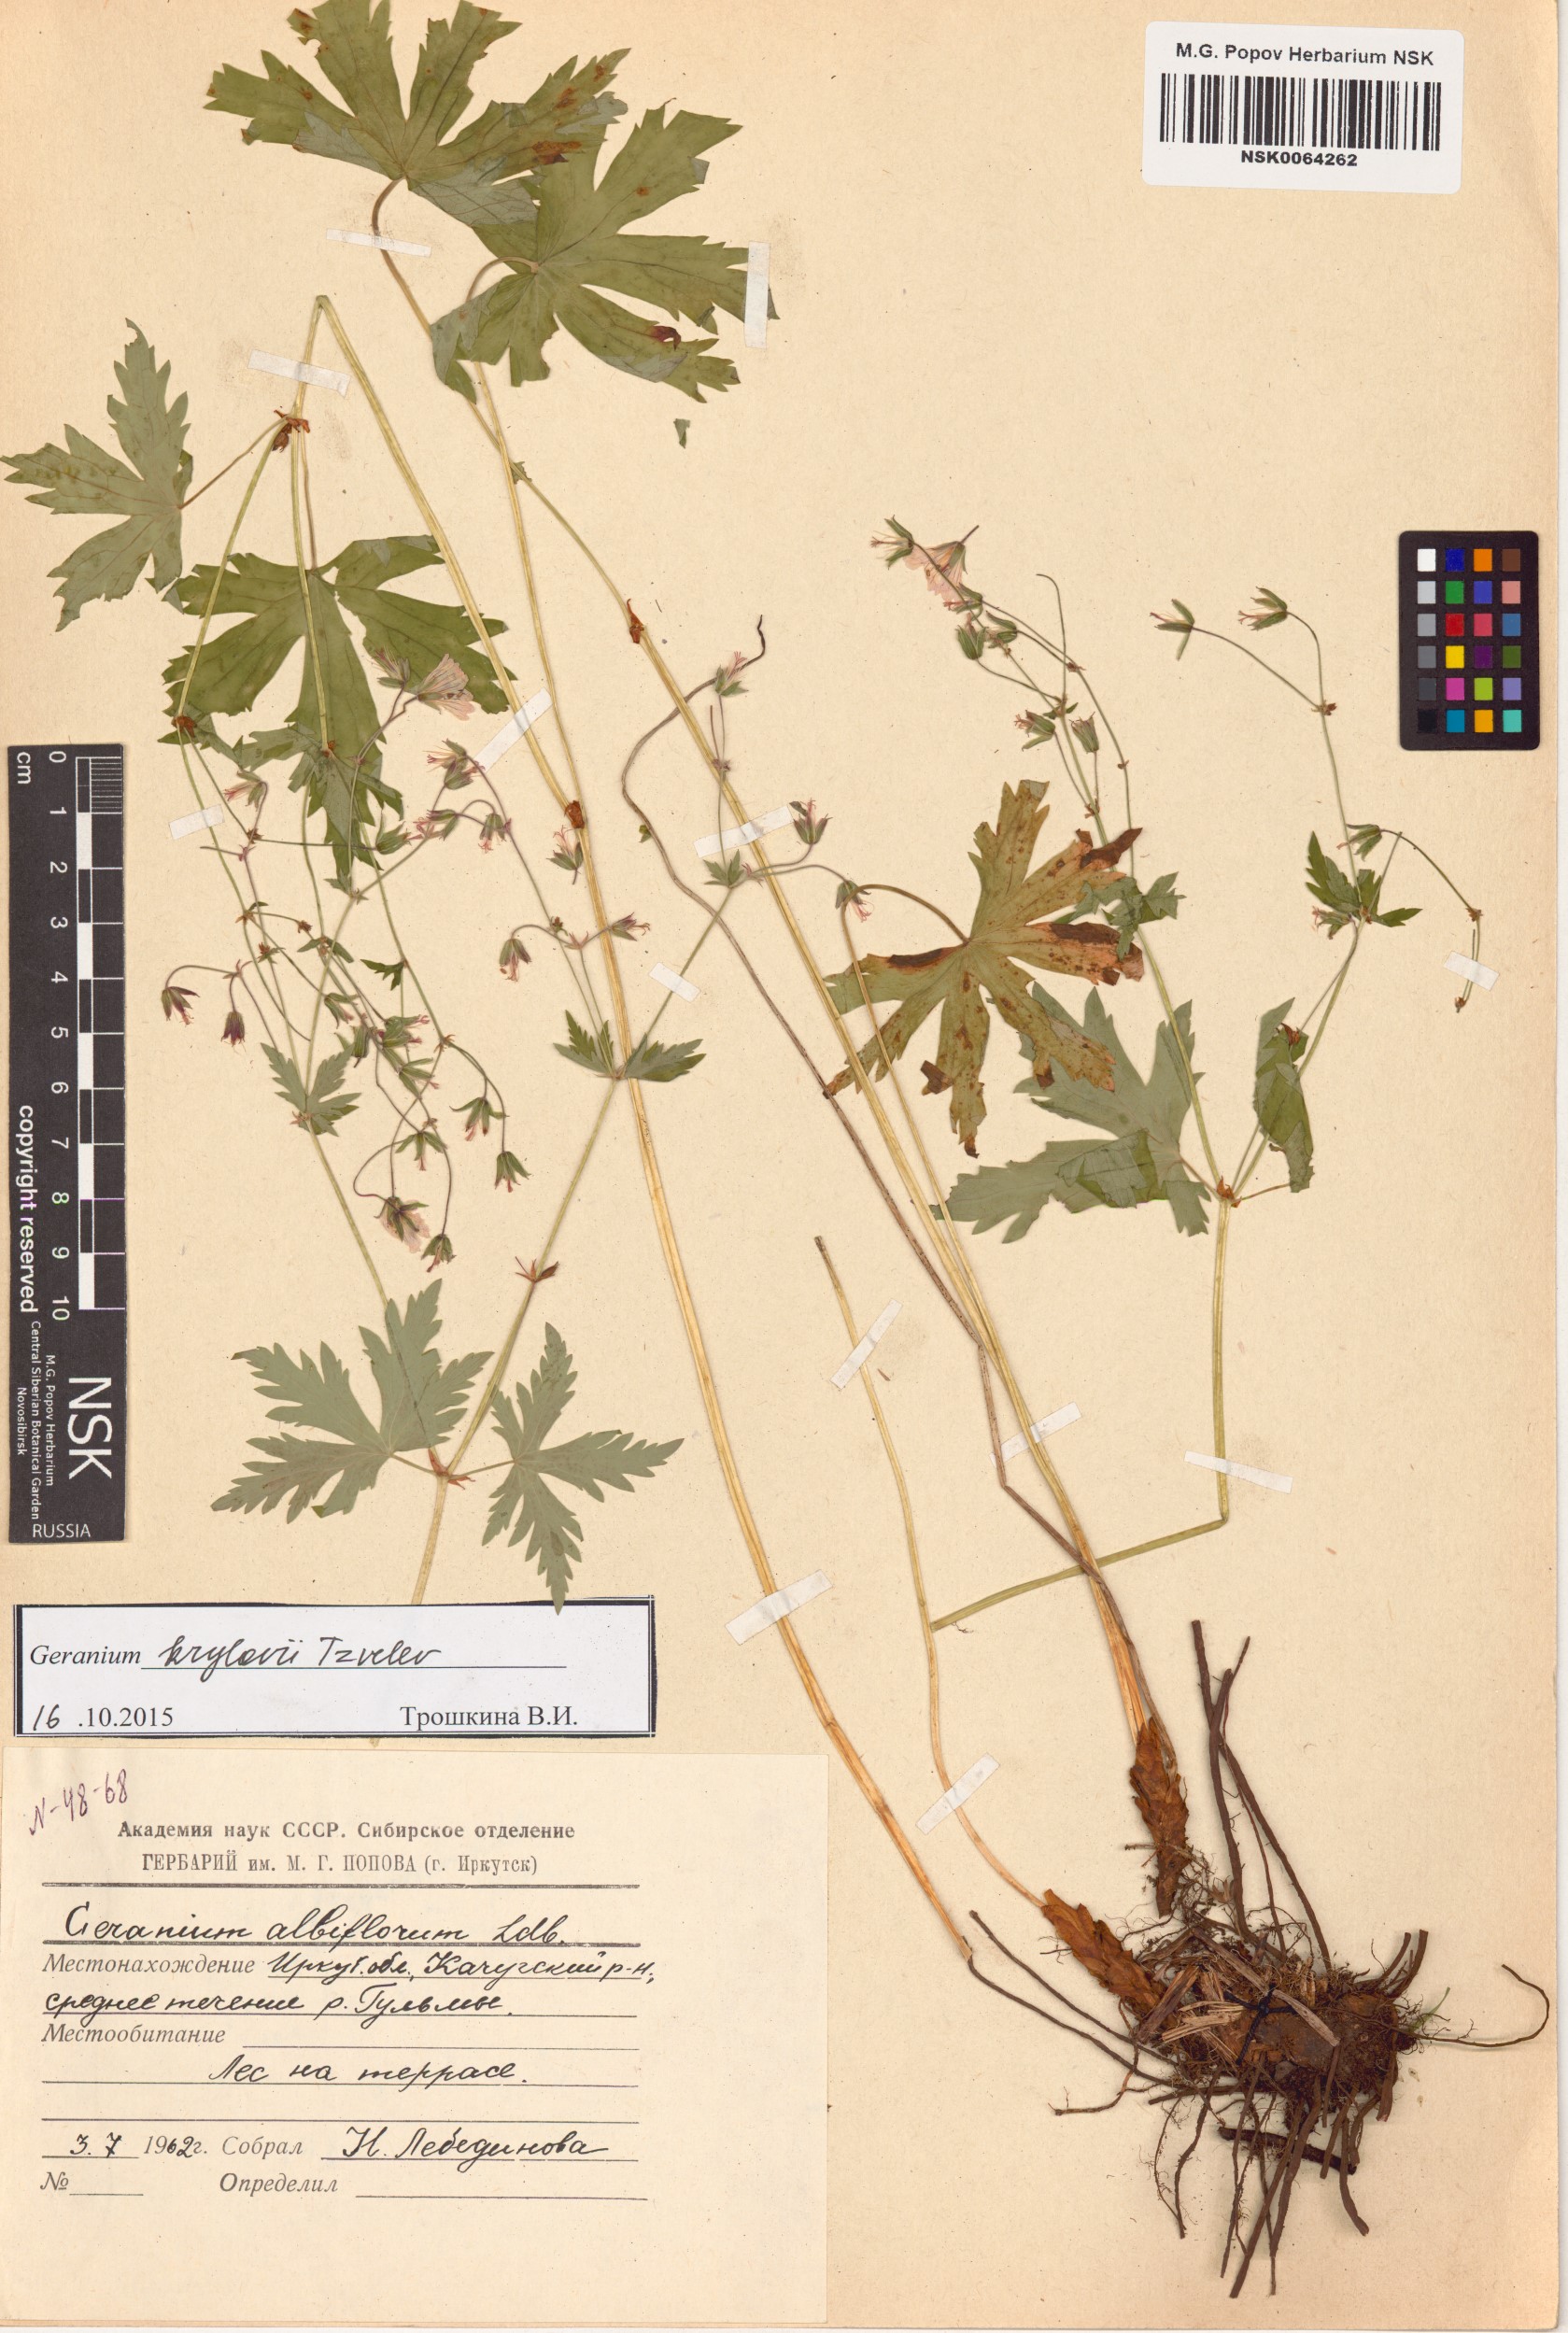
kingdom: Plantae
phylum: Tracheophyta
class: Magnoliopsida
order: Geraniales
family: Geraniaceae
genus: Geranium
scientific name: Geranium sylvaticum
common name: Wood crane's-bill
